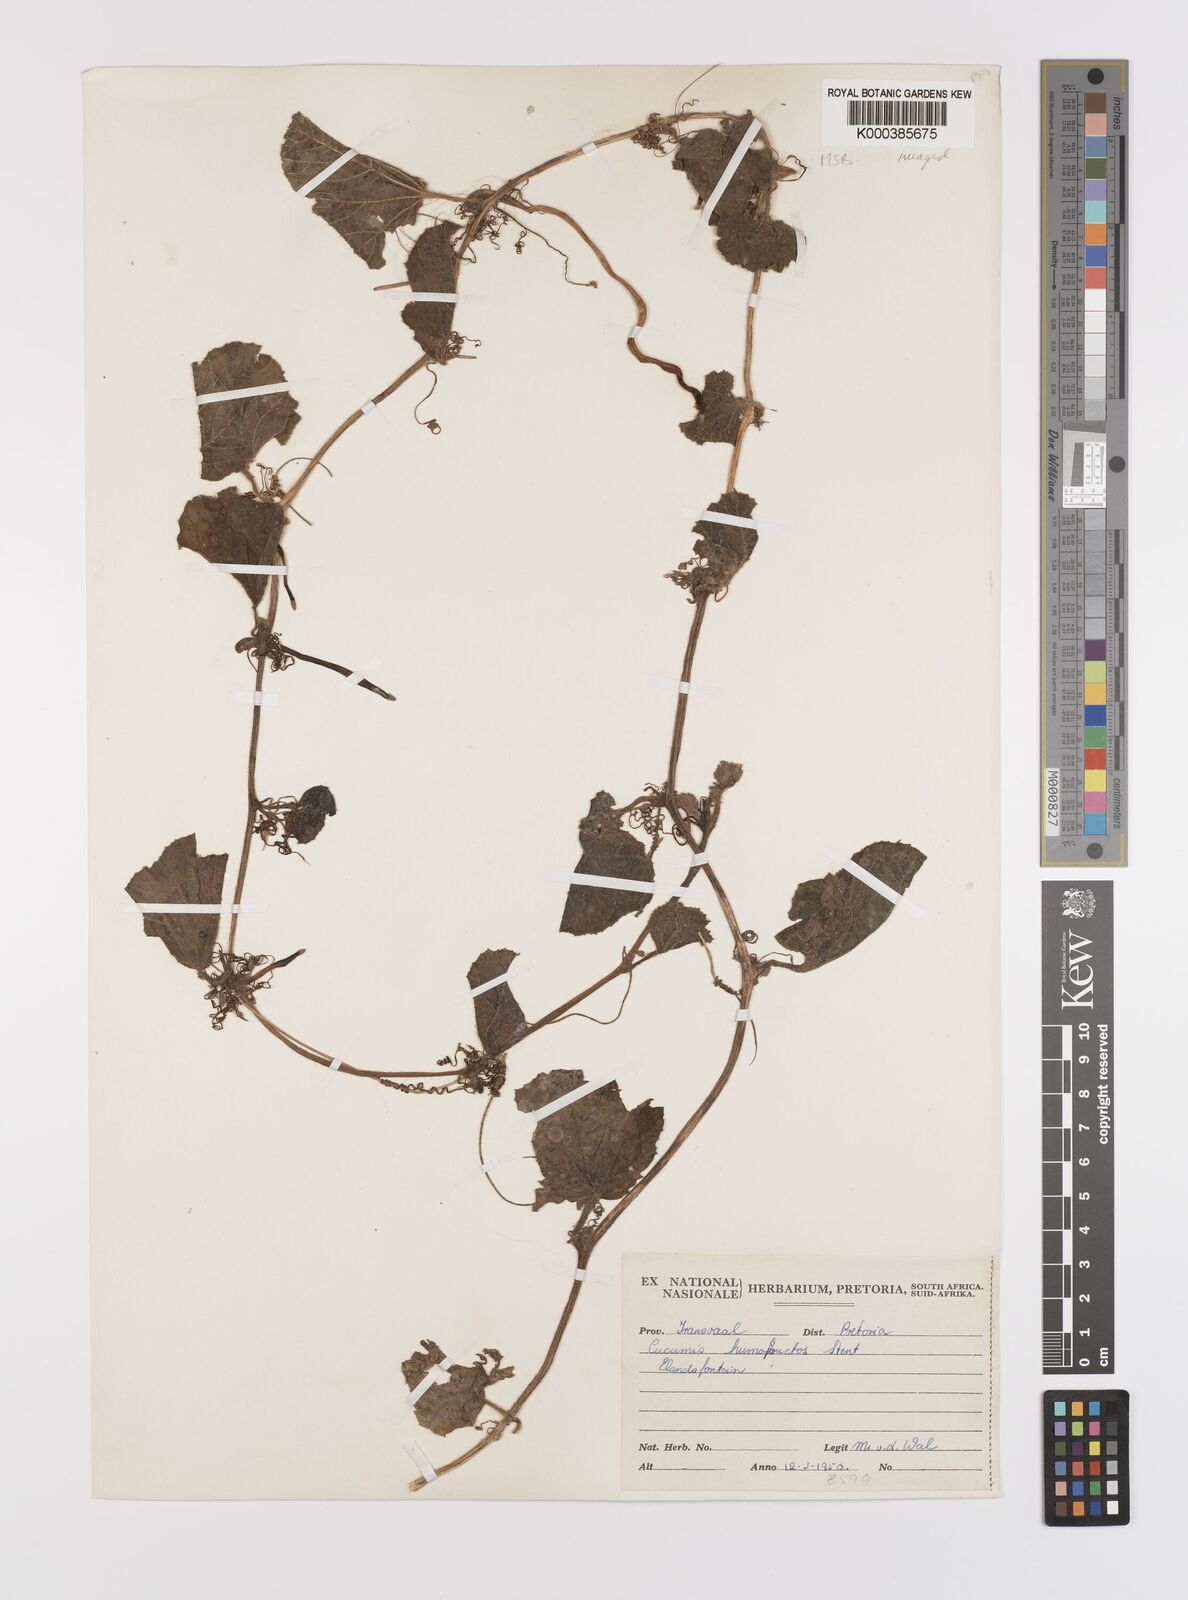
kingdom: Plantae
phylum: Tracheophyta
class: Magnoliopsida
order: Cucurbitales
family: Cucurbitaceae
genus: Cucumis
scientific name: Cucumis
